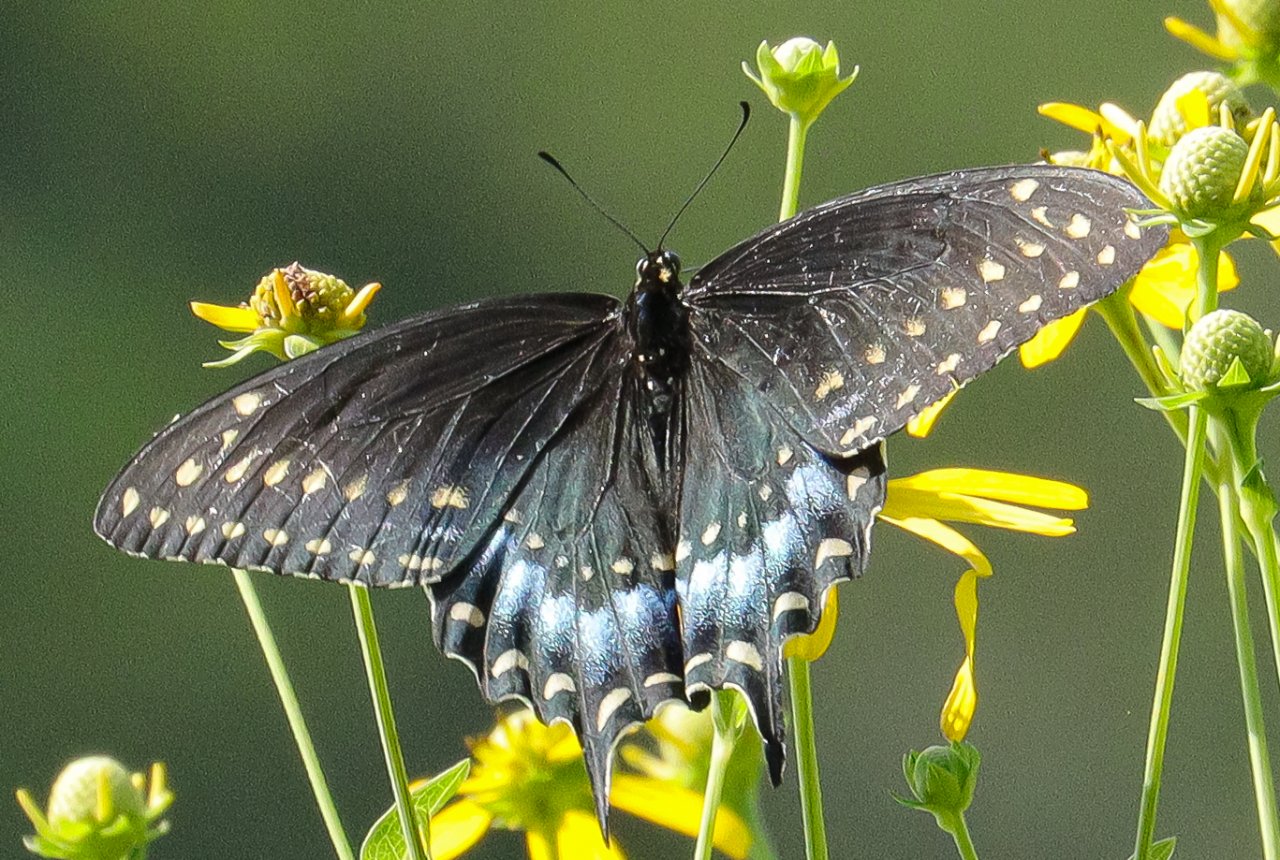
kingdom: Animalia
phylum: Arthropoda
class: Insecta
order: Lepidoptera
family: Papilionidae
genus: Papilio
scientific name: Papilio polyxenes
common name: Black Swallowtail
